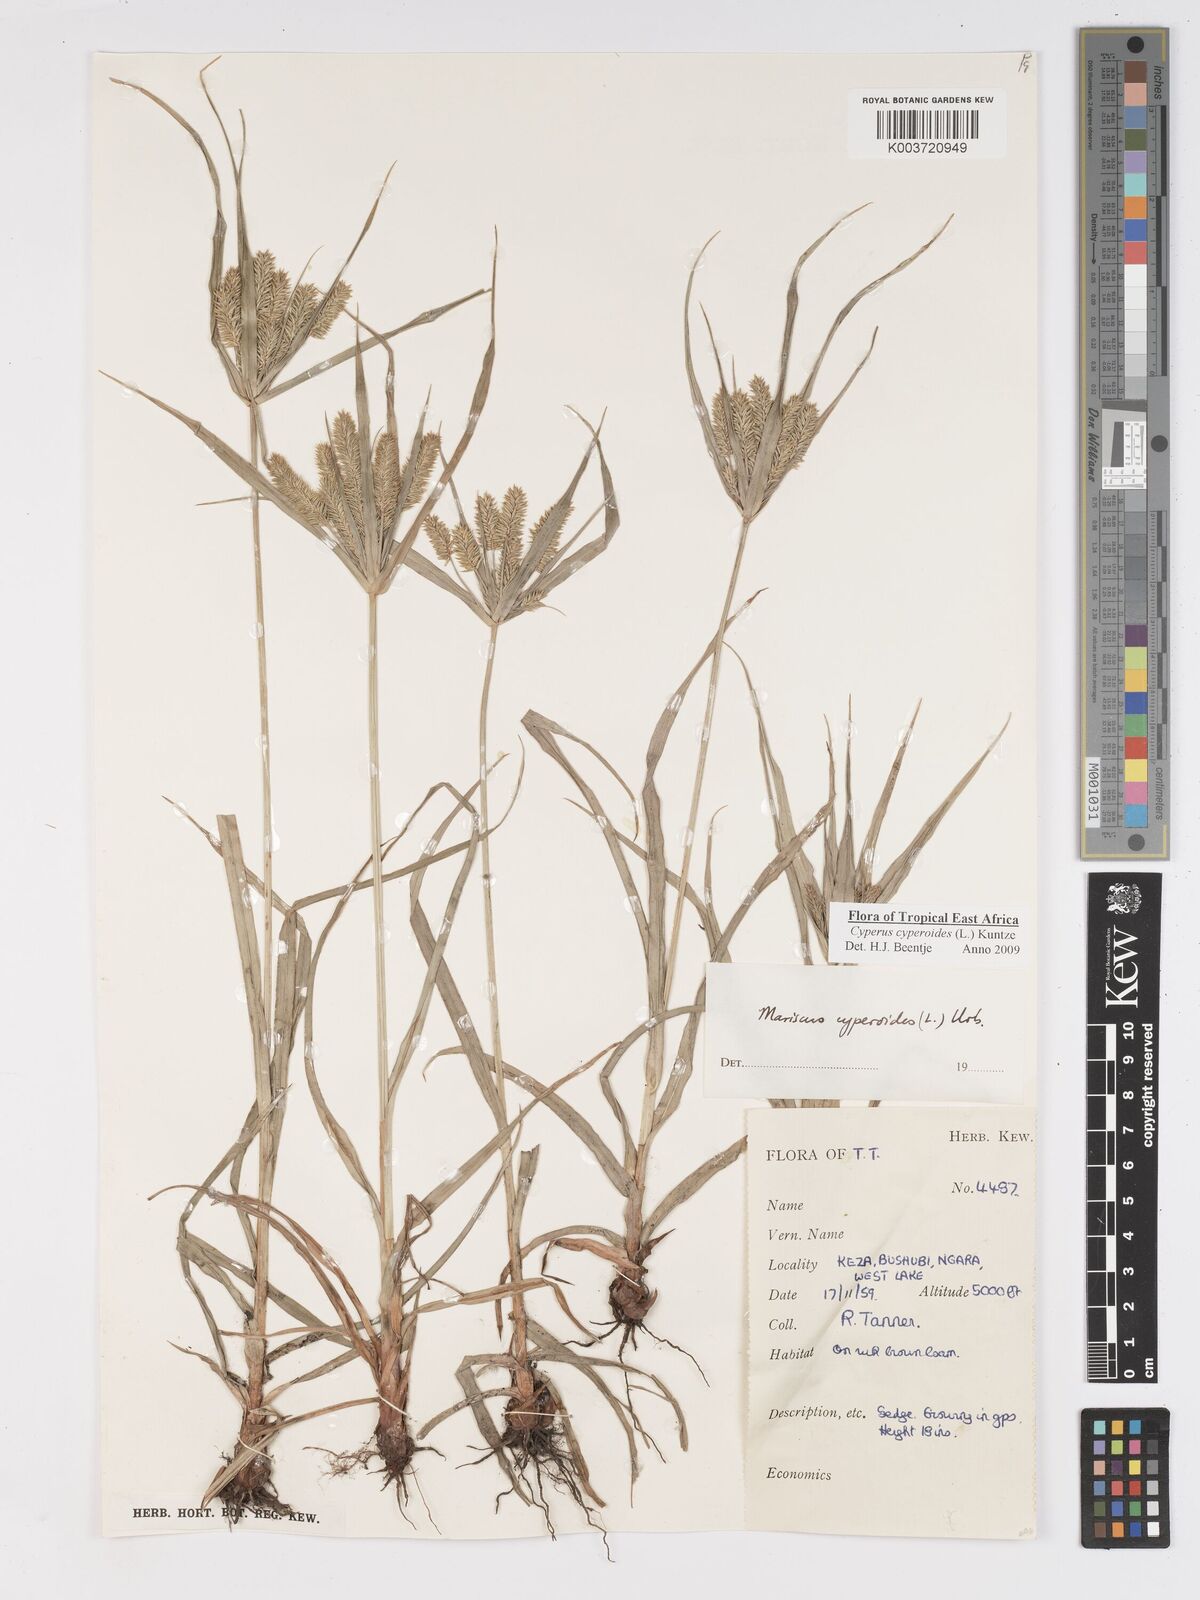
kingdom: Plantae
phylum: Tracheophyta
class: Liliopsida
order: Poales
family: Cyperaceae
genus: Cyperus
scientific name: Cyperus cyperoides
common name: Pacific island flat sedge
